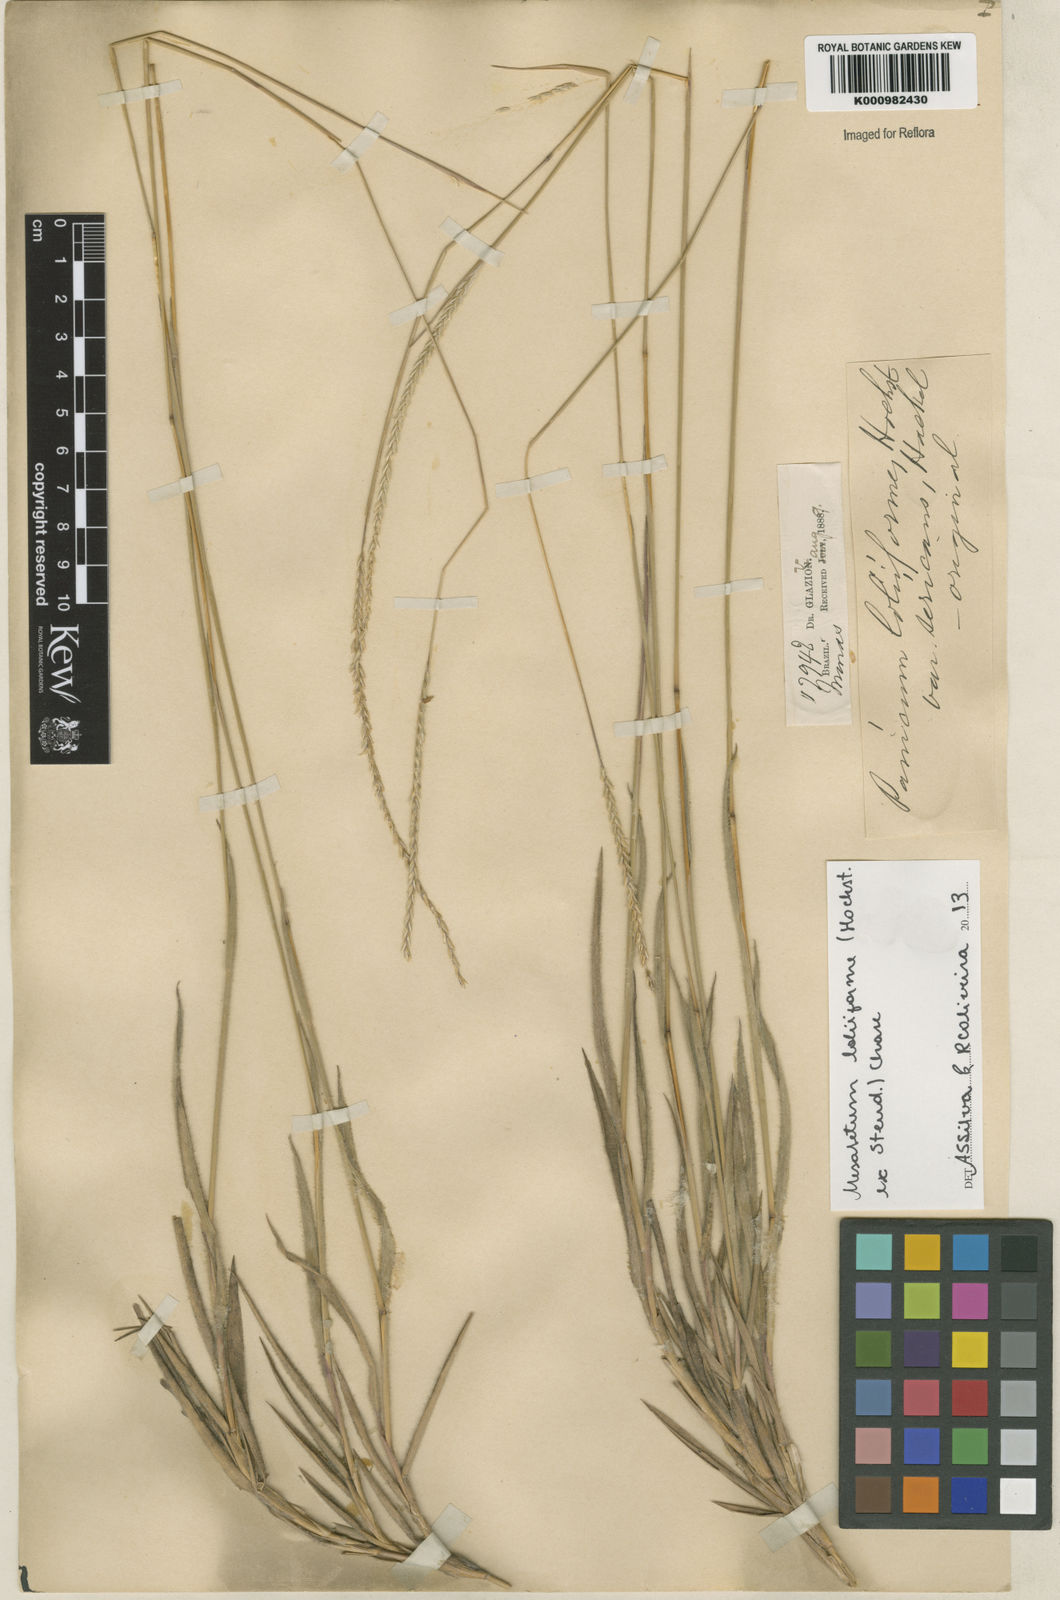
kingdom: Plantae
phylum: Tracheophyta
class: Liliopsida
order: Poales
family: Poaceae
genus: Mesosetum
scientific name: Mesosetum
